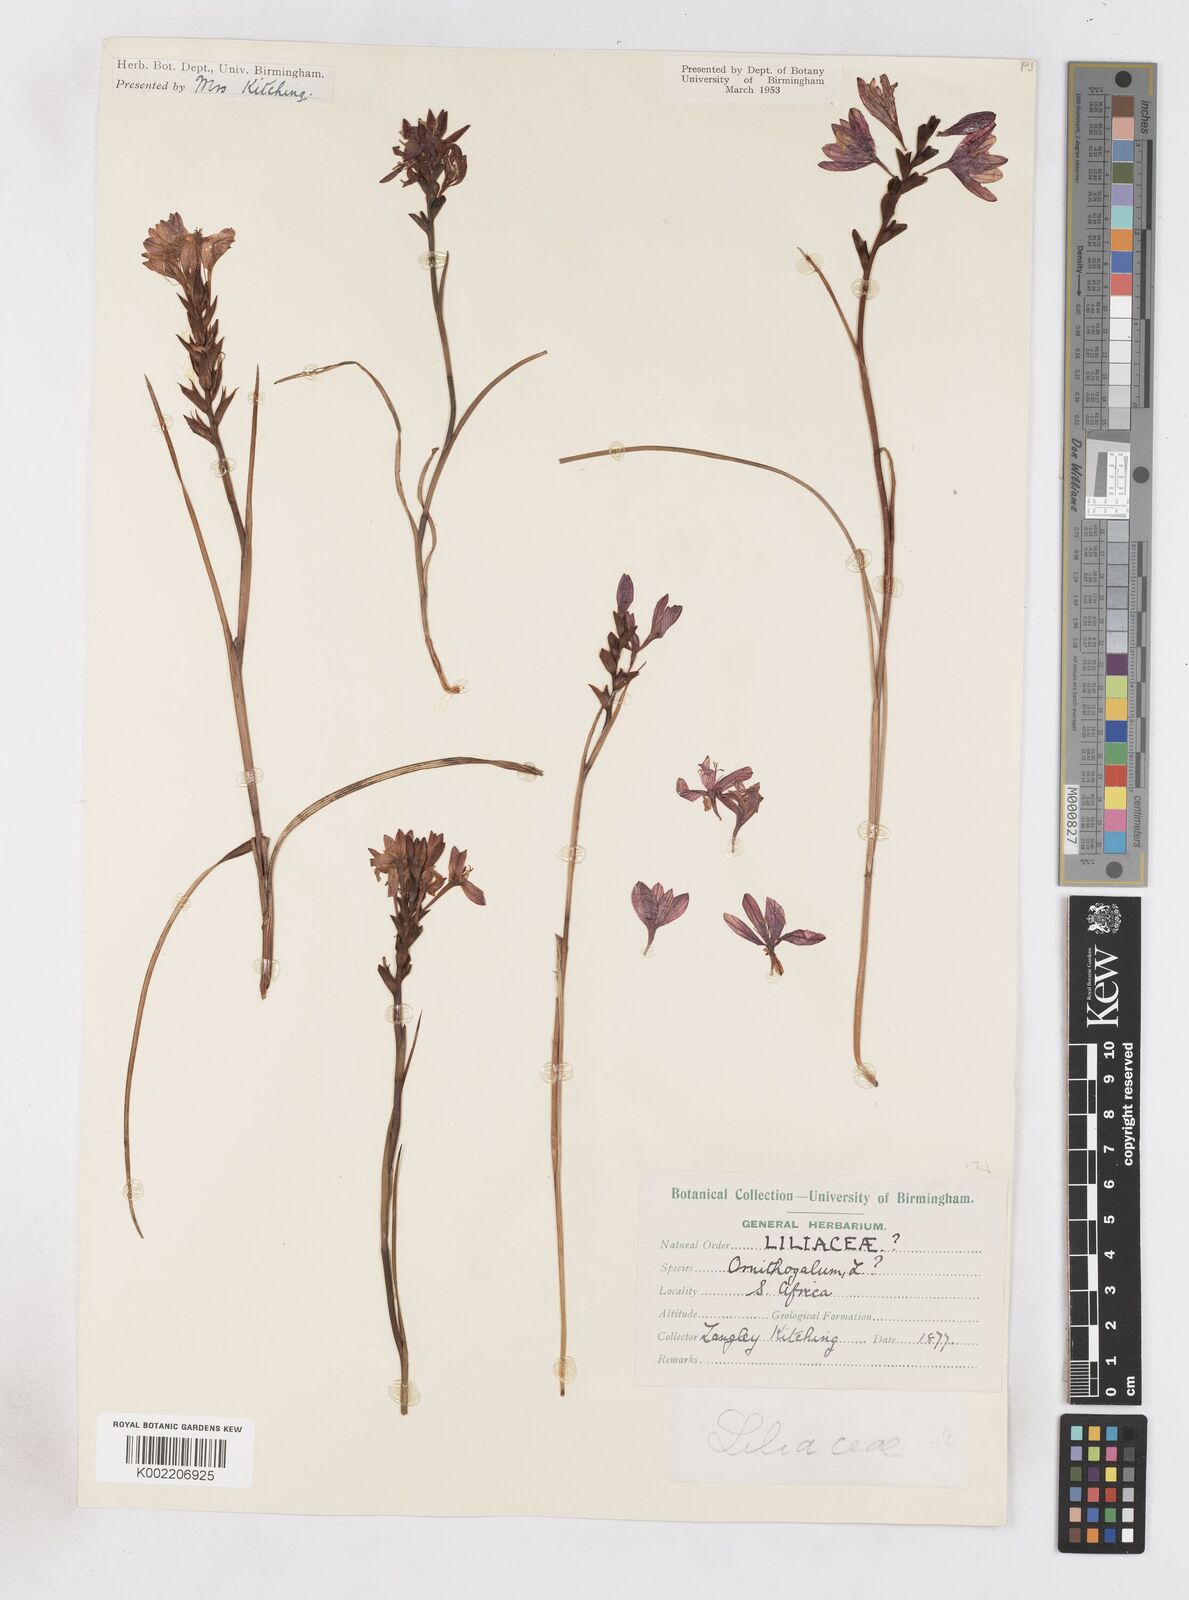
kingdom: Plantae
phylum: Tracheophyta
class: Magnoliopsida
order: Lamiales
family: Acanthaceae
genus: Phaulopsis
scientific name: Phaulopsis barteri
